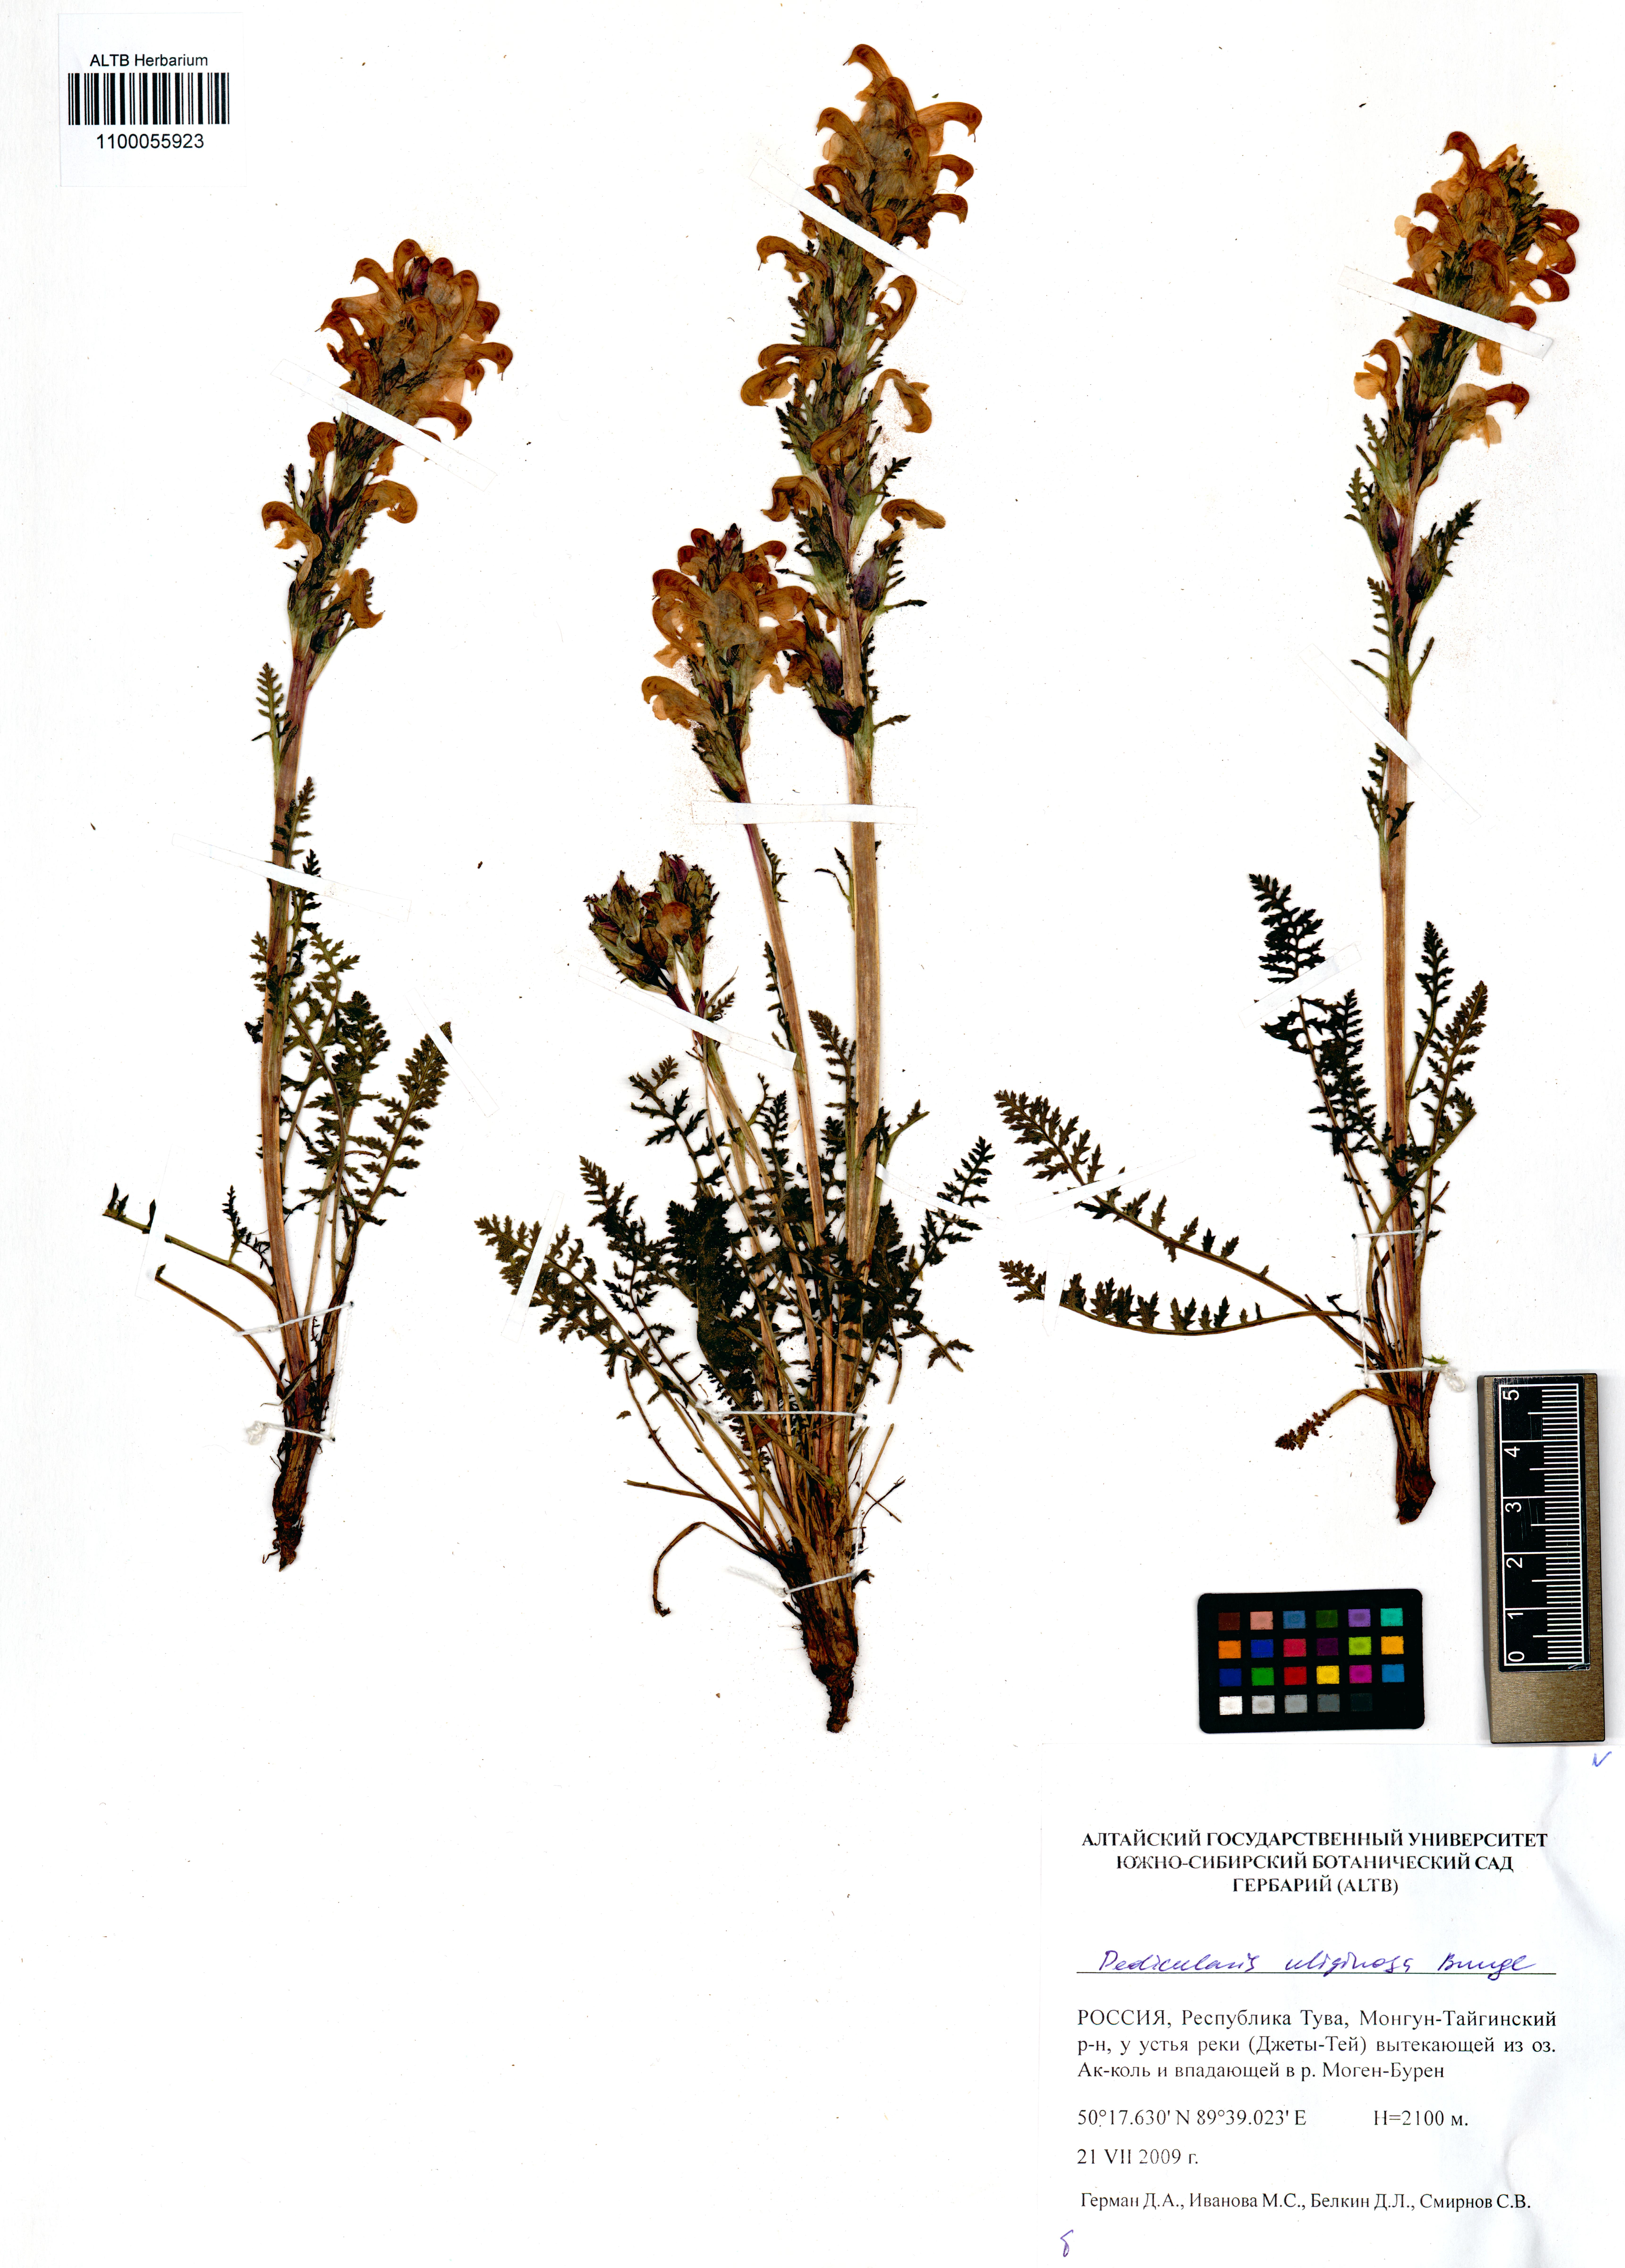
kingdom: Plantae
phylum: Tracheophyta
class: Magnoliopsida
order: Lamiales
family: Orobanchaceae
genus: Pedicularis
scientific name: Pedicularis uliginosa
